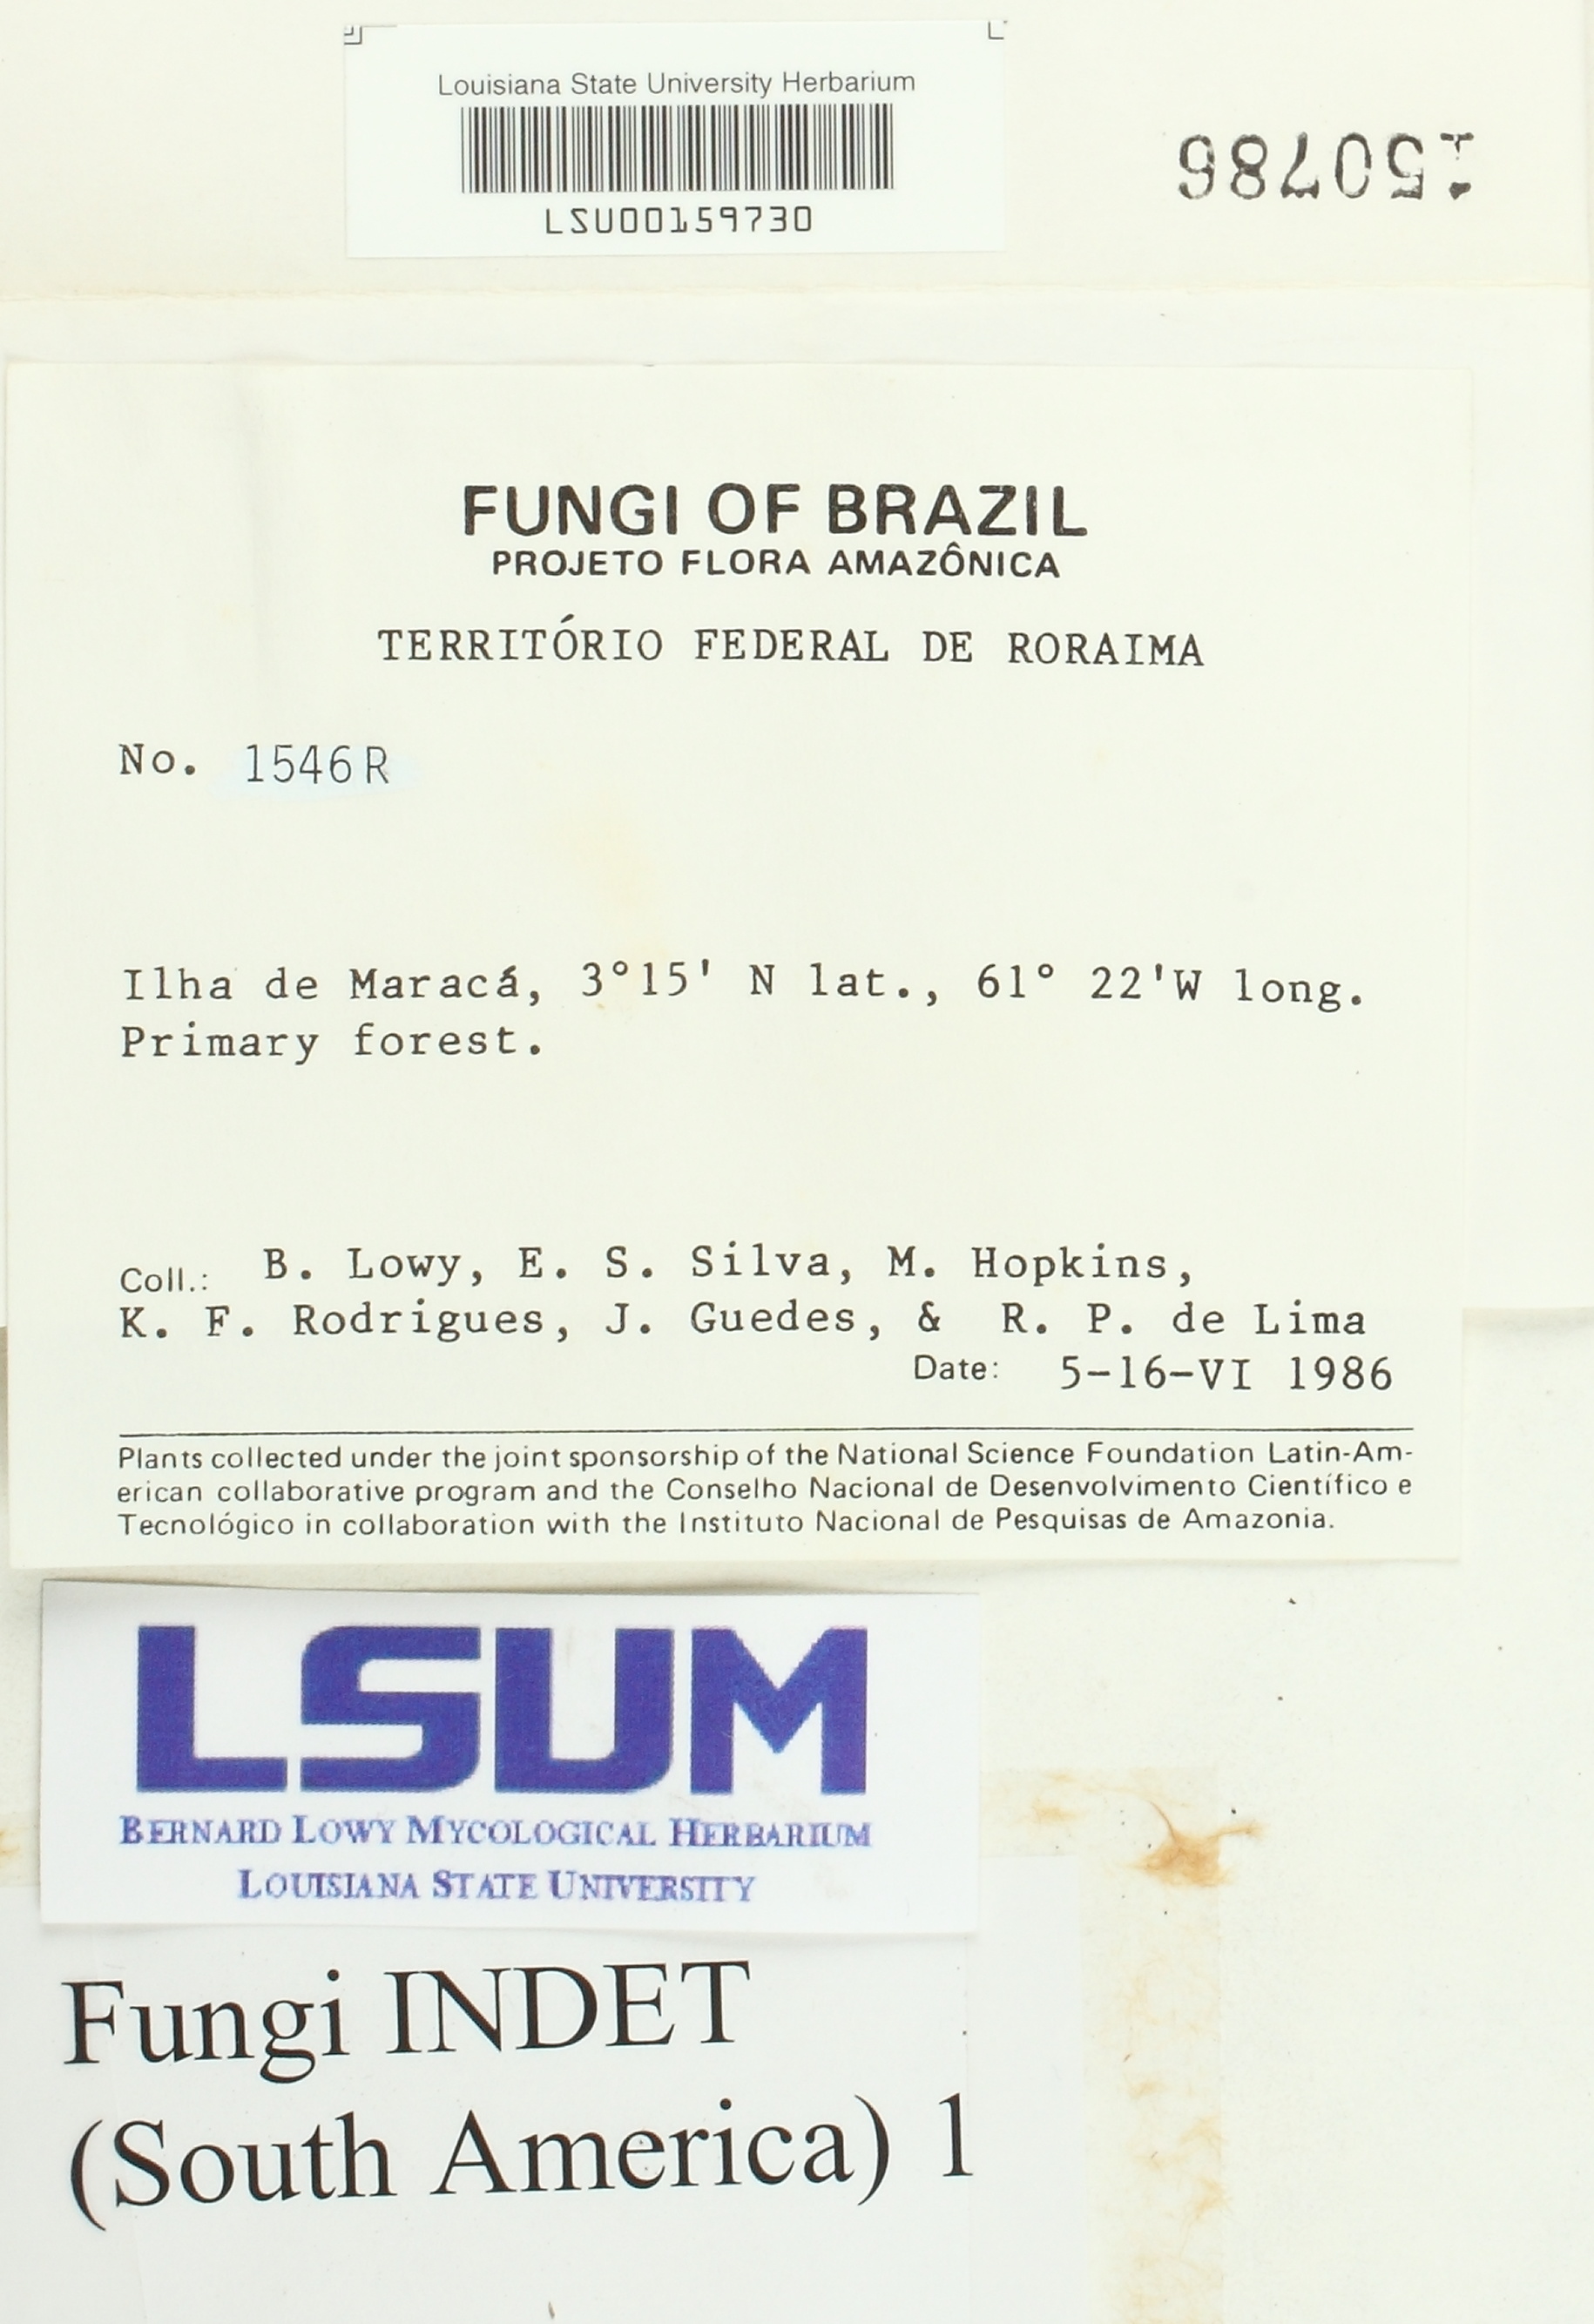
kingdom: Fungi
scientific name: Fungi
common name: Fungi
